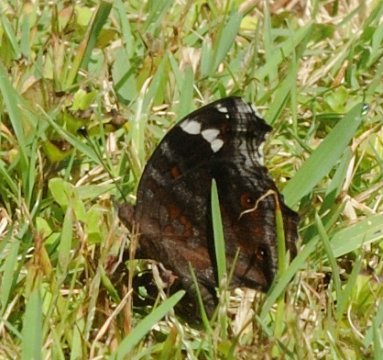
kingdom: Animalia
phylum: Arthropoda
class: Insecta
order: Lepidoptera
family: Nymphalidae
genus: Junonia
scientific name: Junonia natalica
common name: Natal Pansy
